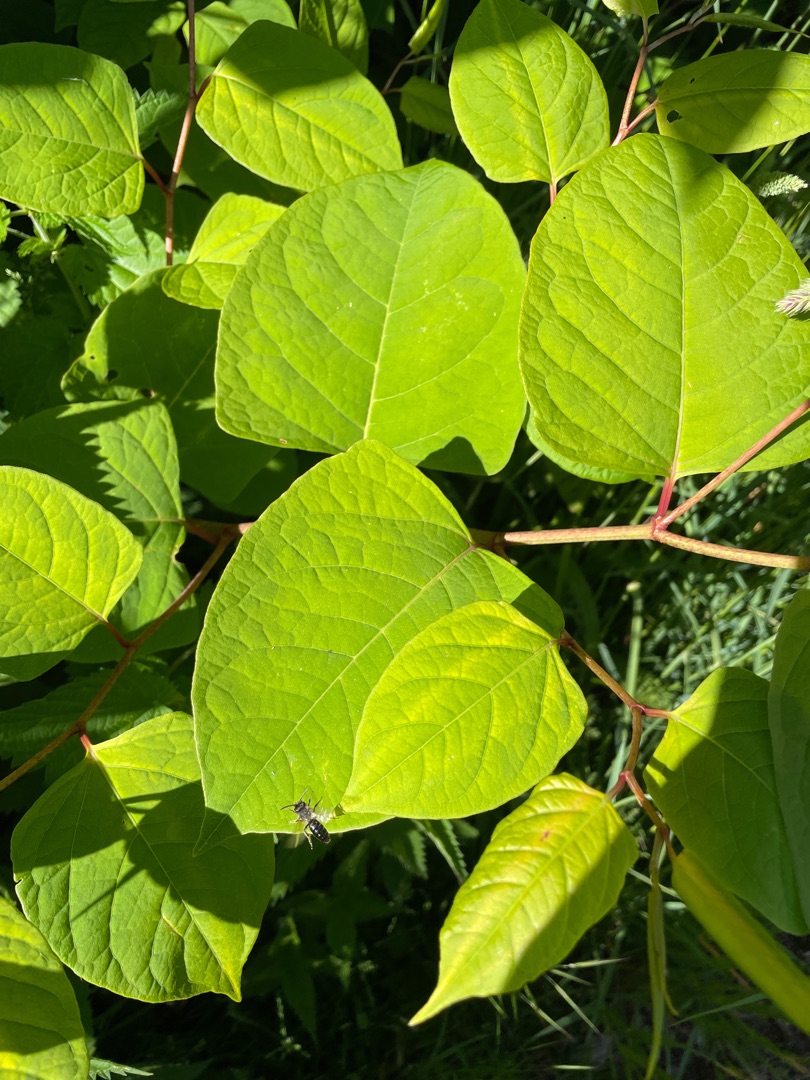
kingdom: Plantae
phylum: Tracheophyta
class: Magnoliopsida
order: Caryophyllales
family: Polygonaceae
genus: Reynoutria
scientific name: Reynoutria japonica
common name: Japan-pileurt
